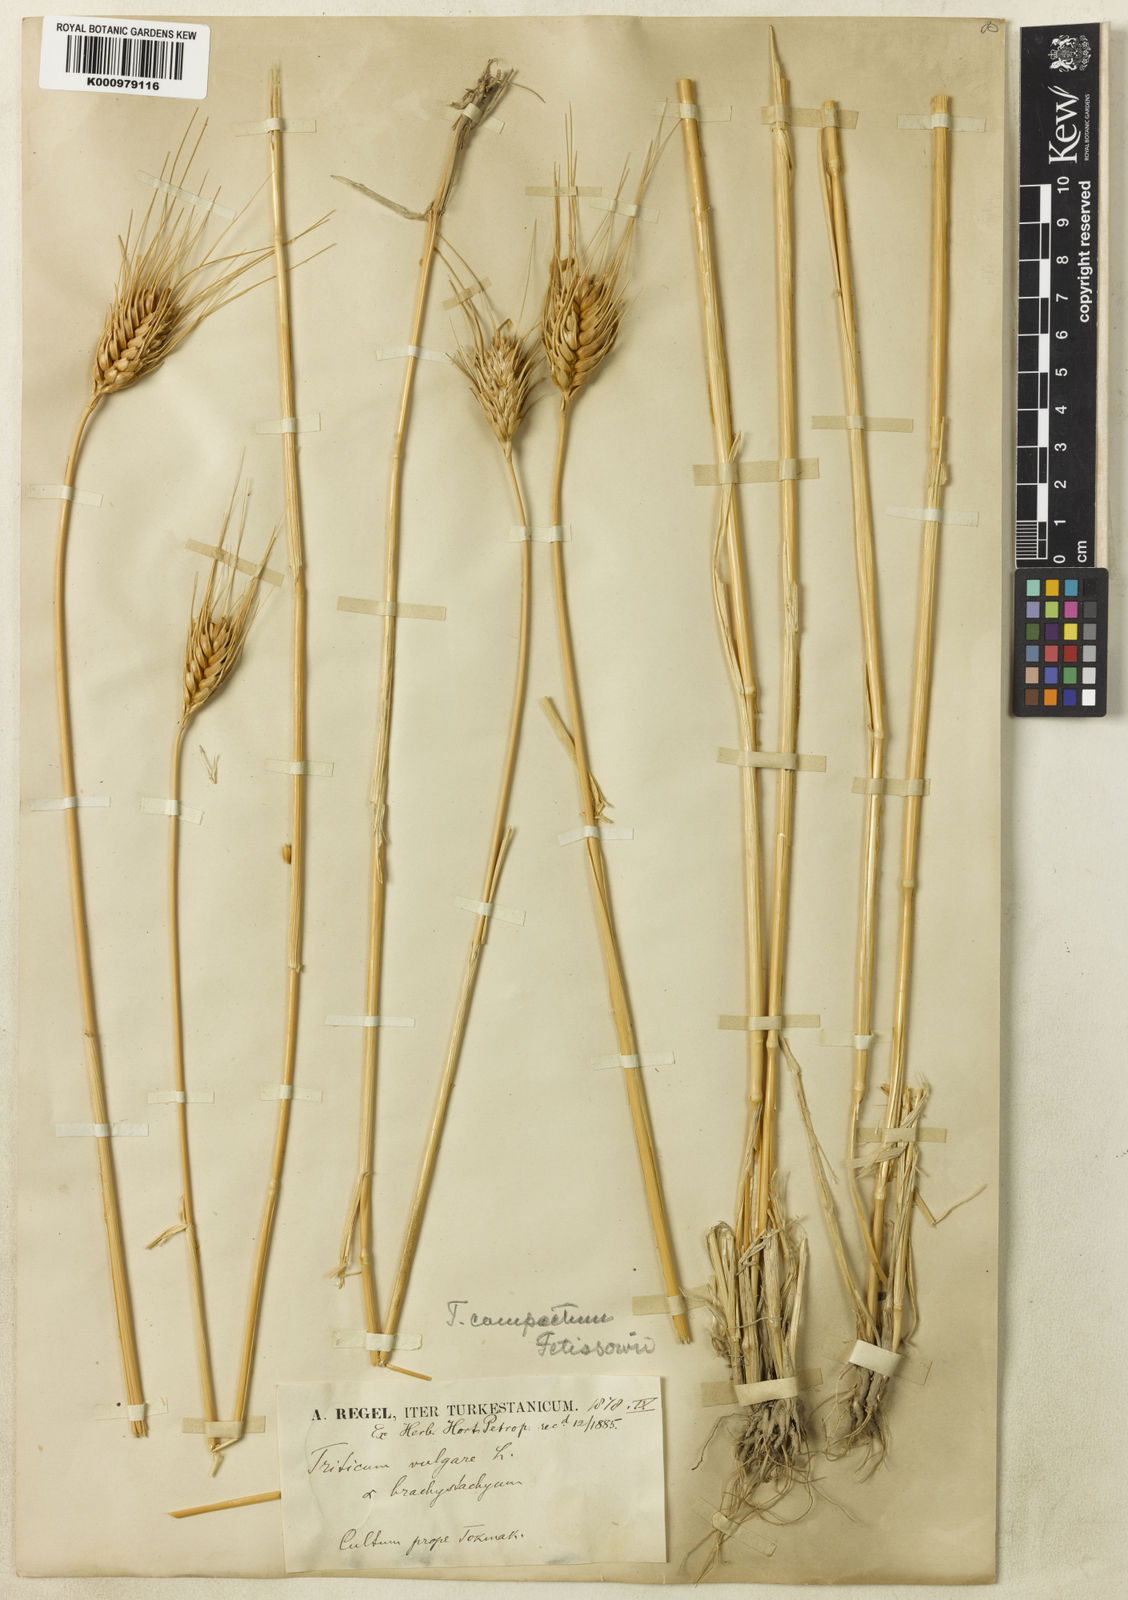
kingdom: Plantae
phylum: Tracheophyta
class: Liliopsida
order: Poales
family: Poaceae
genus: Triticum
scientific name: Triticum aestivum
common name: Common wheat
